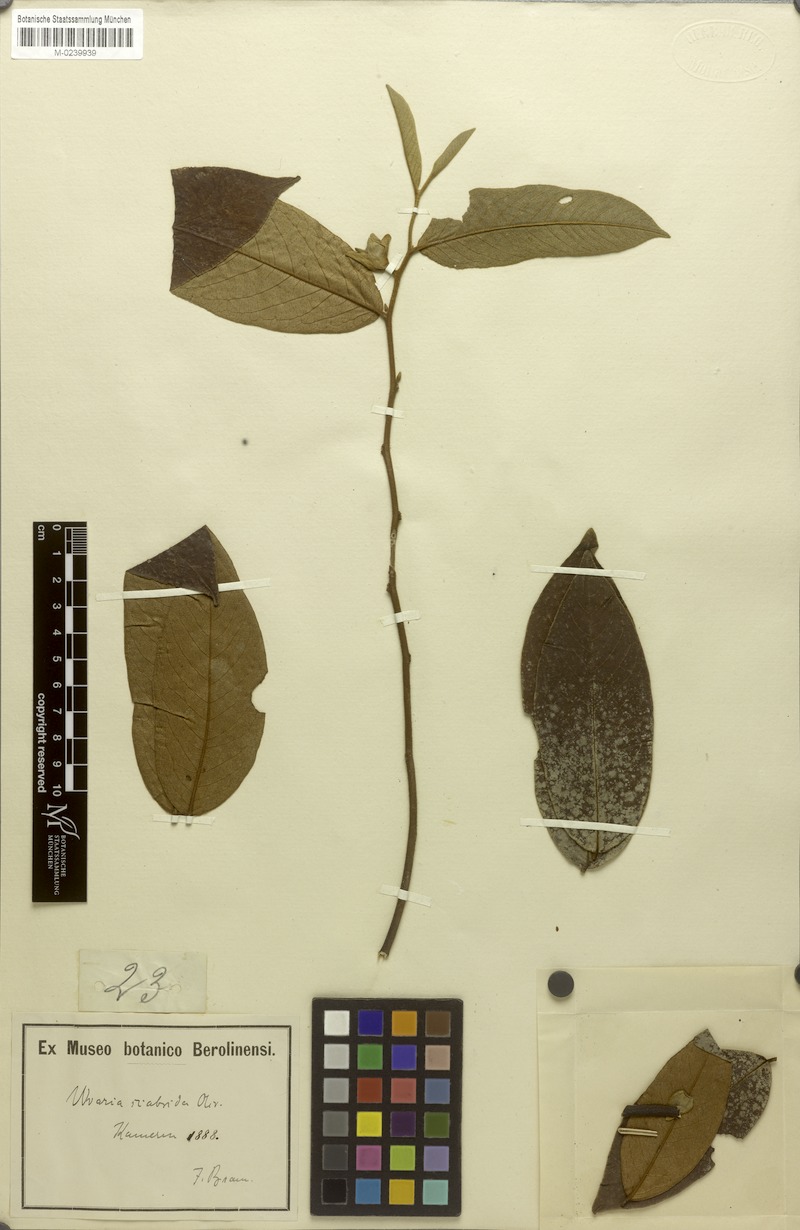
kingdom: Plantae
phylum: Tracheophyta
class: Magnoliopsida
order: Magnoliales
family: Annonaceae
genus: Uvaria
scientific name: Uvaria scabrida
